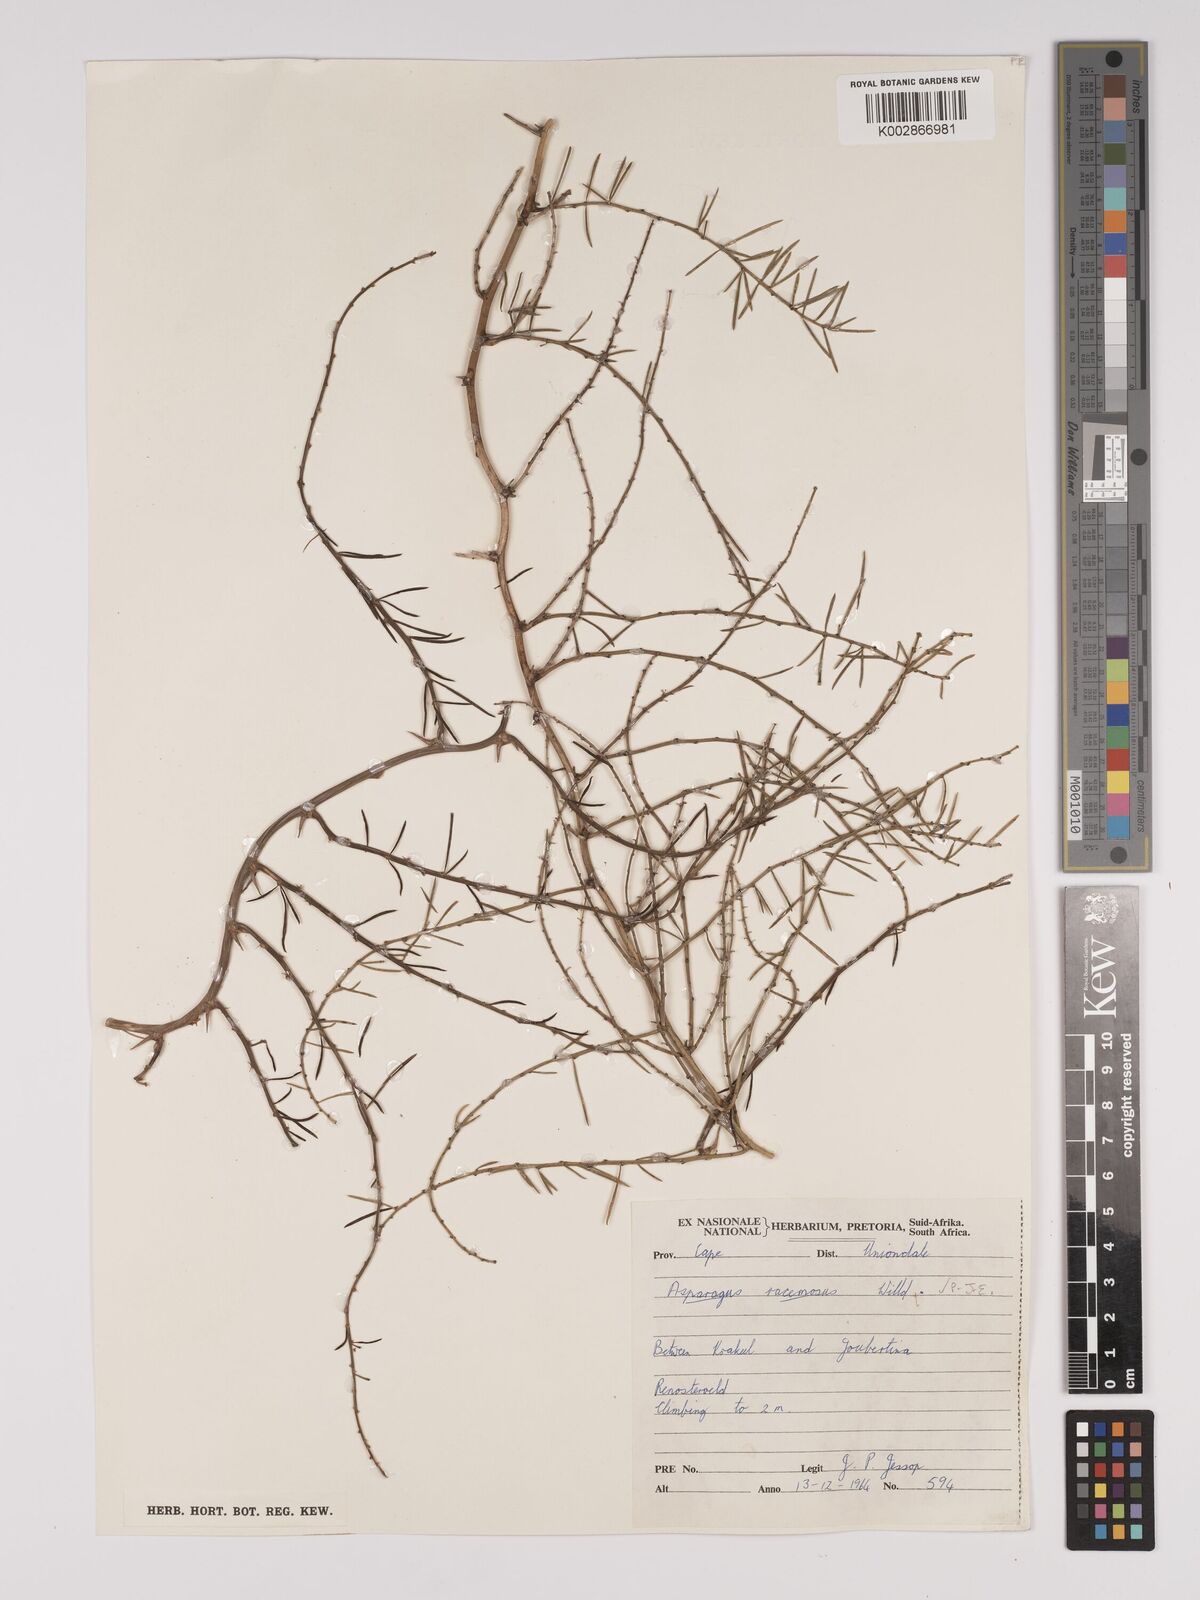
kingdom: Plantae
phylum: Tracheophyta
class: Liliopsida
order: Asparagales
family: Asparagaceae
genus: Asparagus
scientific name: Asparagus racemosus
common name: Asparagus-fern
